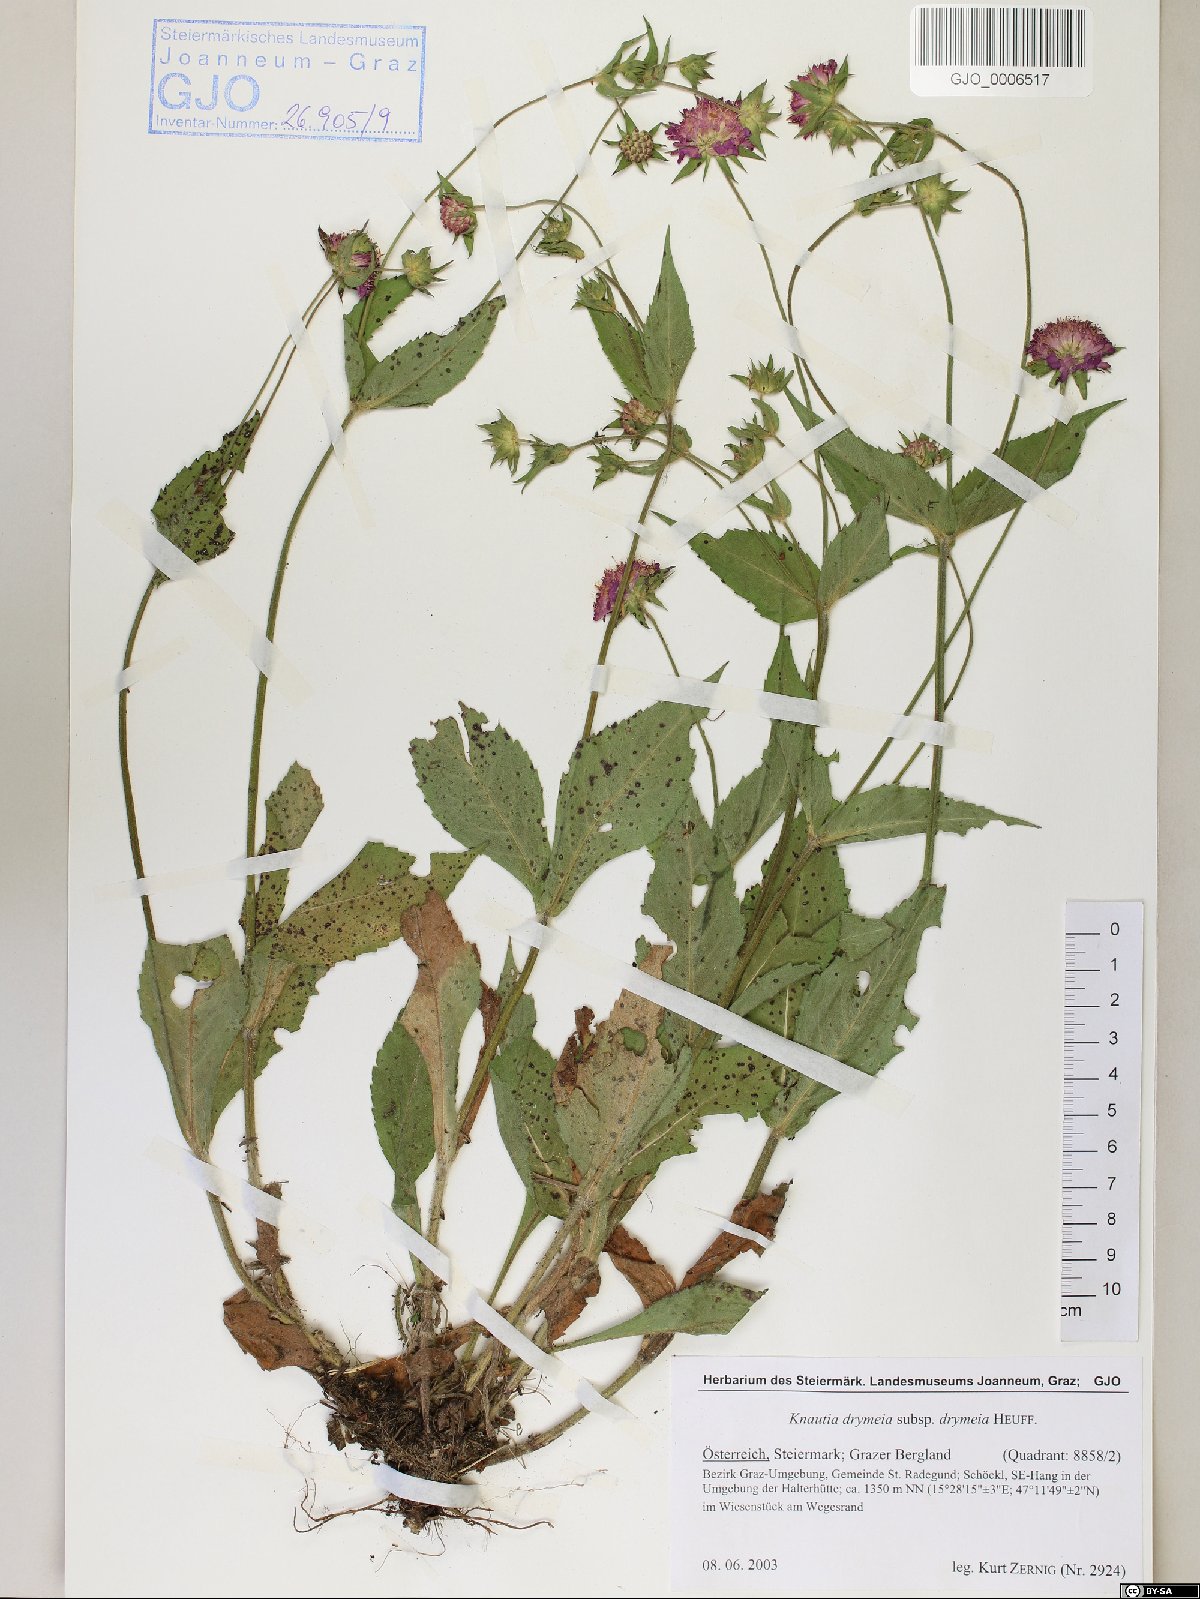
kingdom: Plantae
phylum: Tracheophyta
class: Magnoliopsida
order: Dipsacales
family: Caprifoliaceae
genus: Knautia
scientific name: Knautia drymeia
